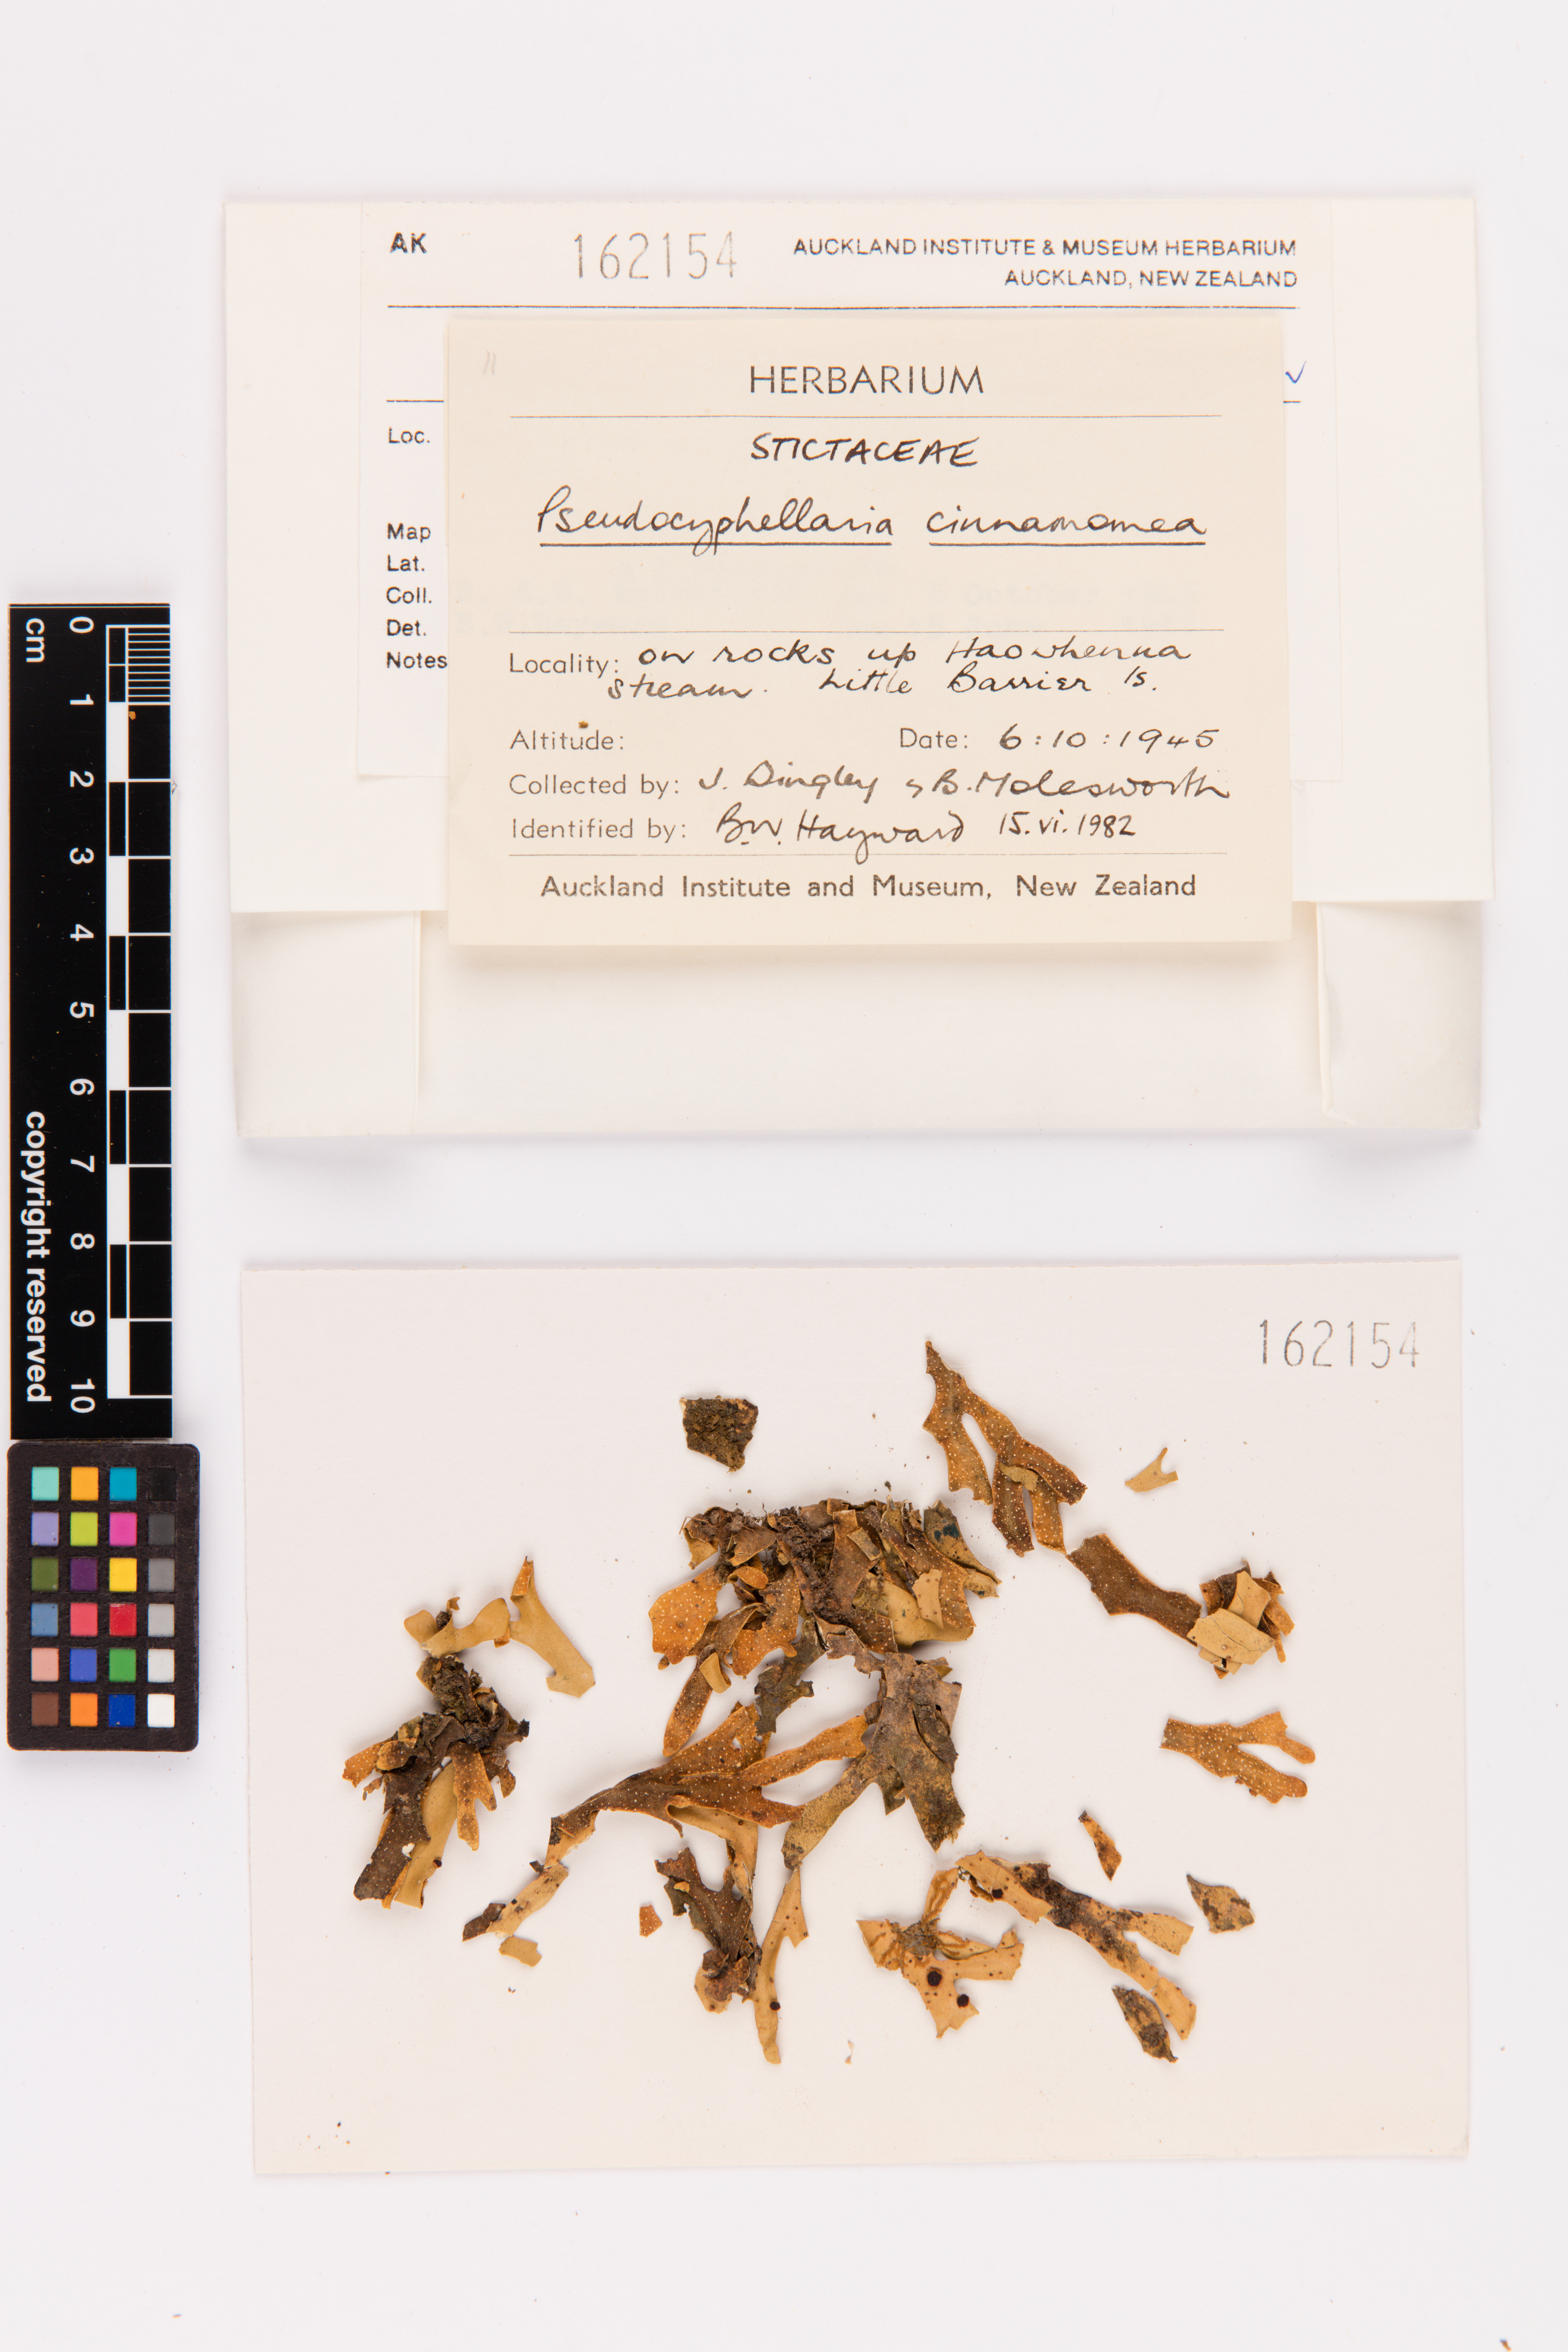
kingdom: Fungi
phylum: Ascomycota
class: Lecanoromycetes
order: Peltigerales
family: Lobariaceae
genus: Pseudocyphellaria
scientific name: Pseudocyphellaria cinnamomea
